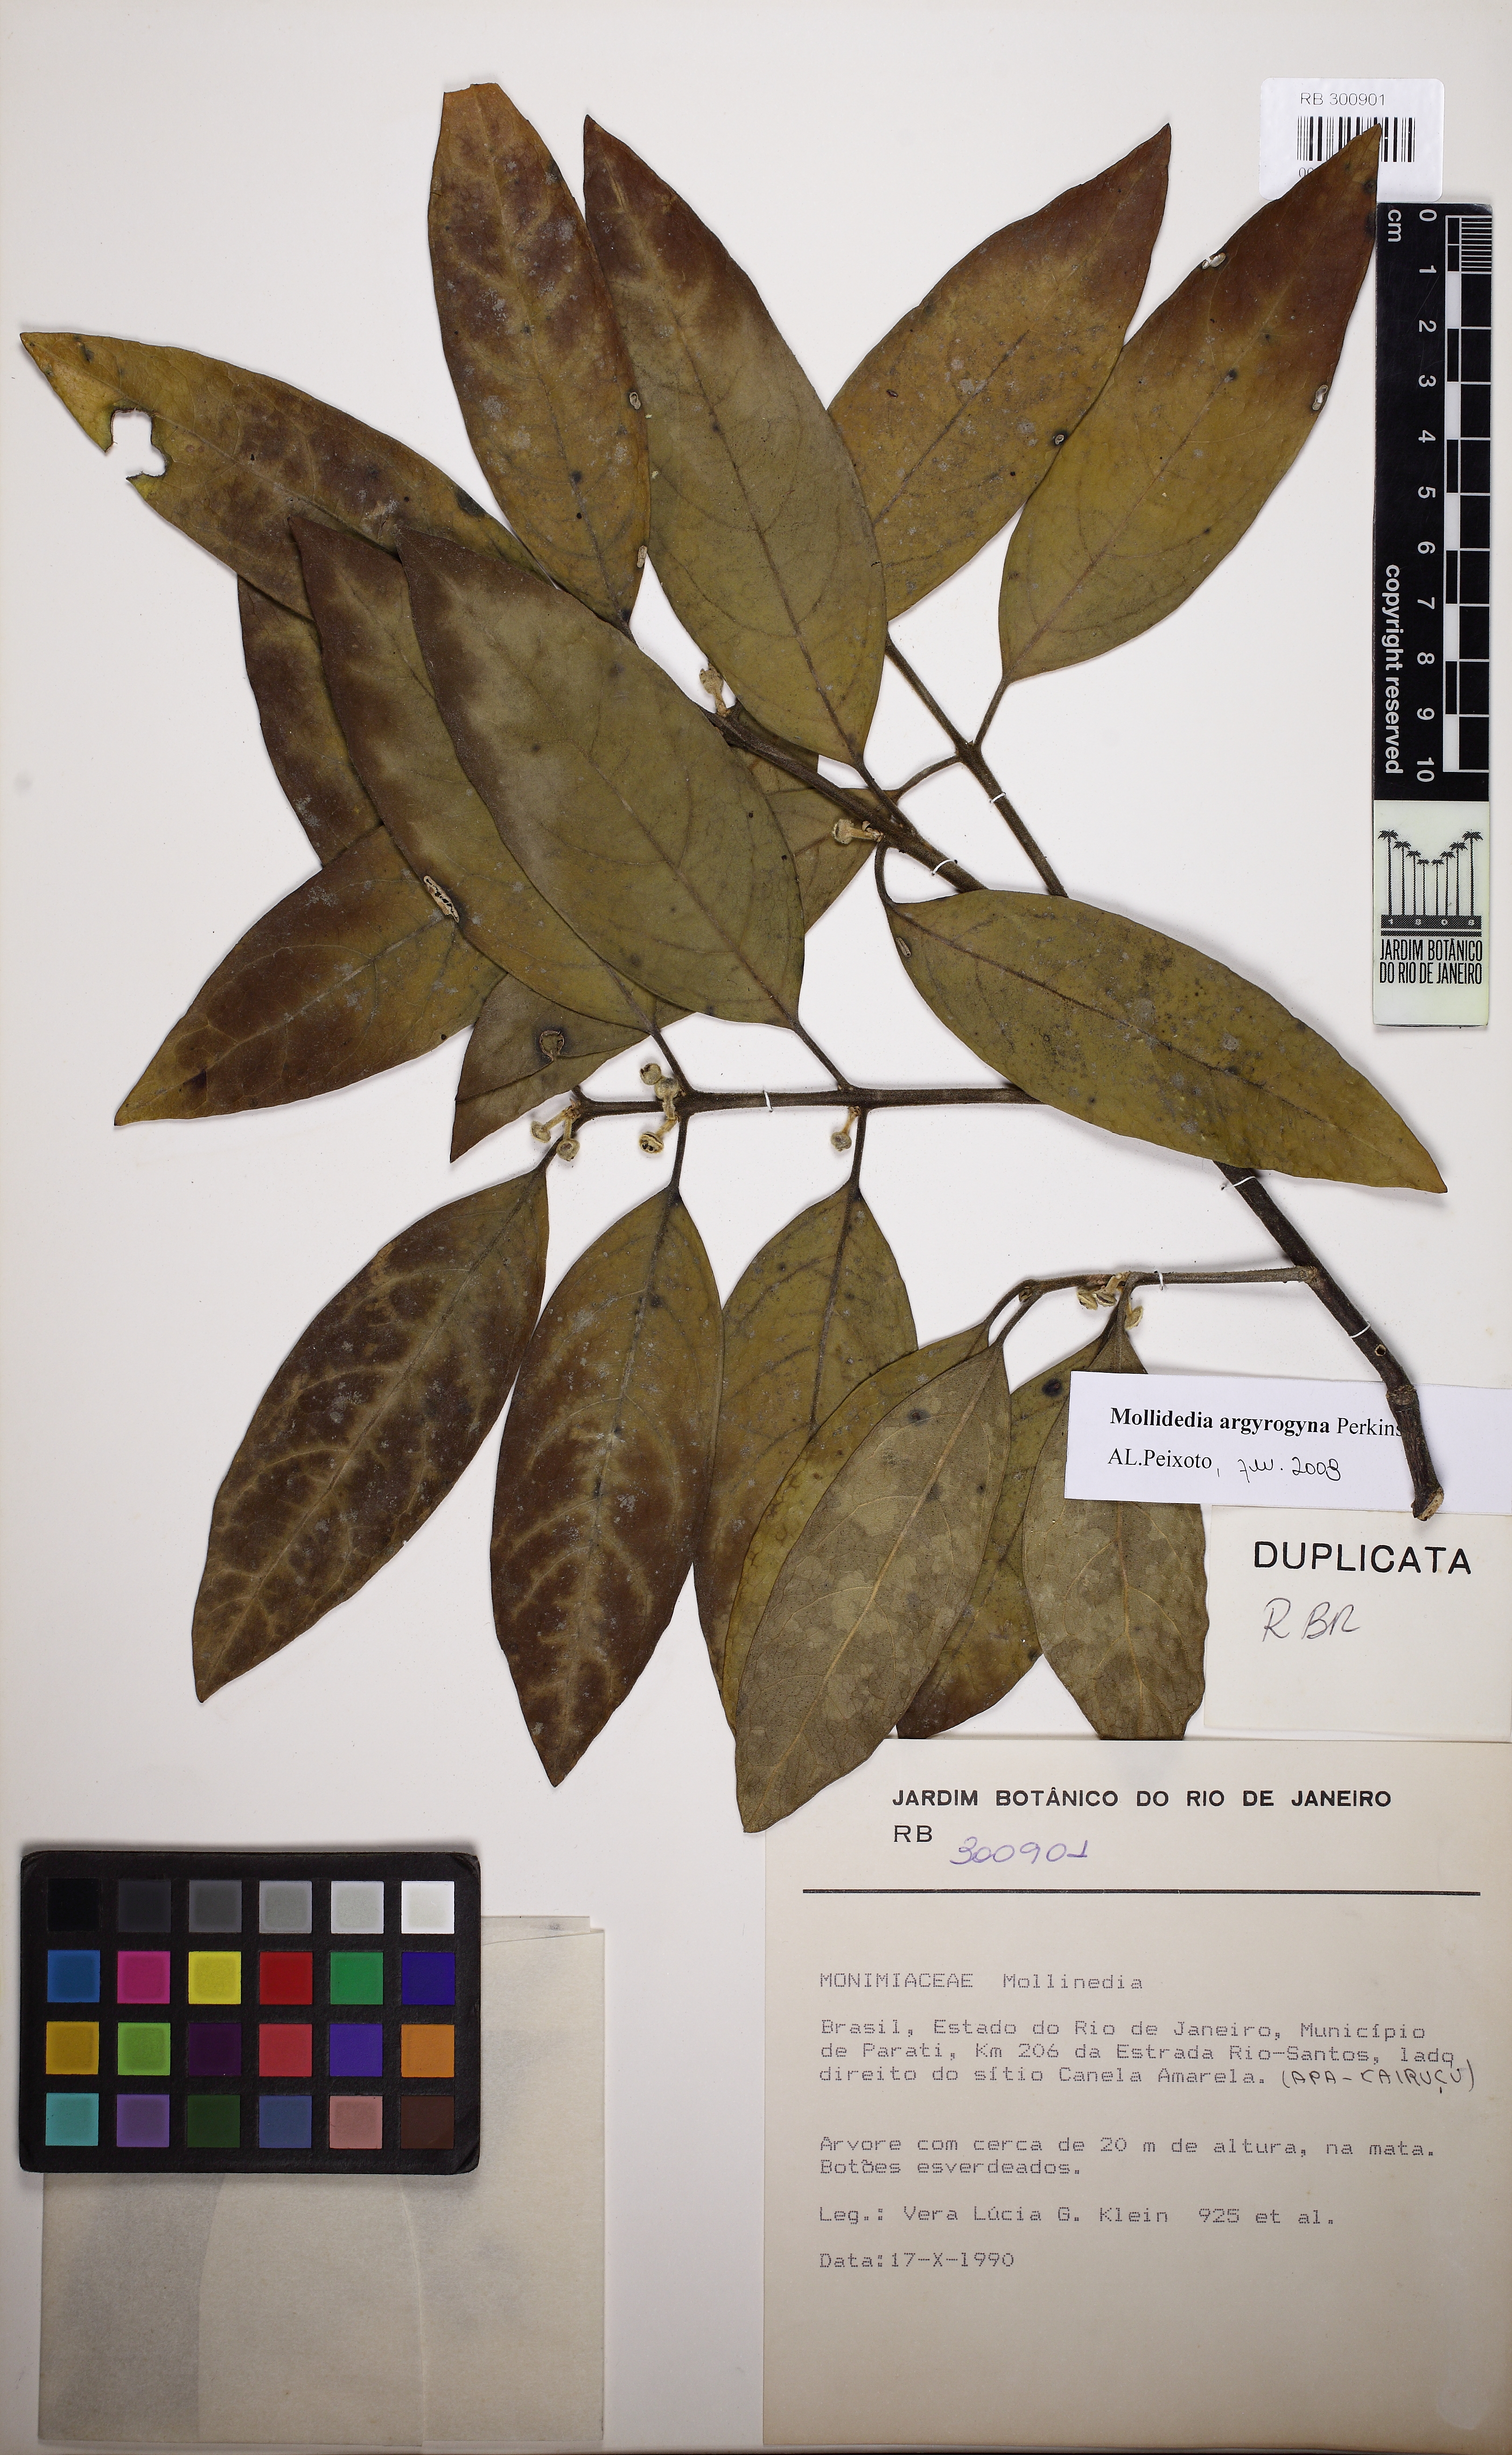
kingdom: Plantae
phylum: Tracheophyta
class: Magnoliopsida
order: Laurales
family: Monimiaceae
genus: Mollinedia
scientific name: Mollinedia argyrogyna
